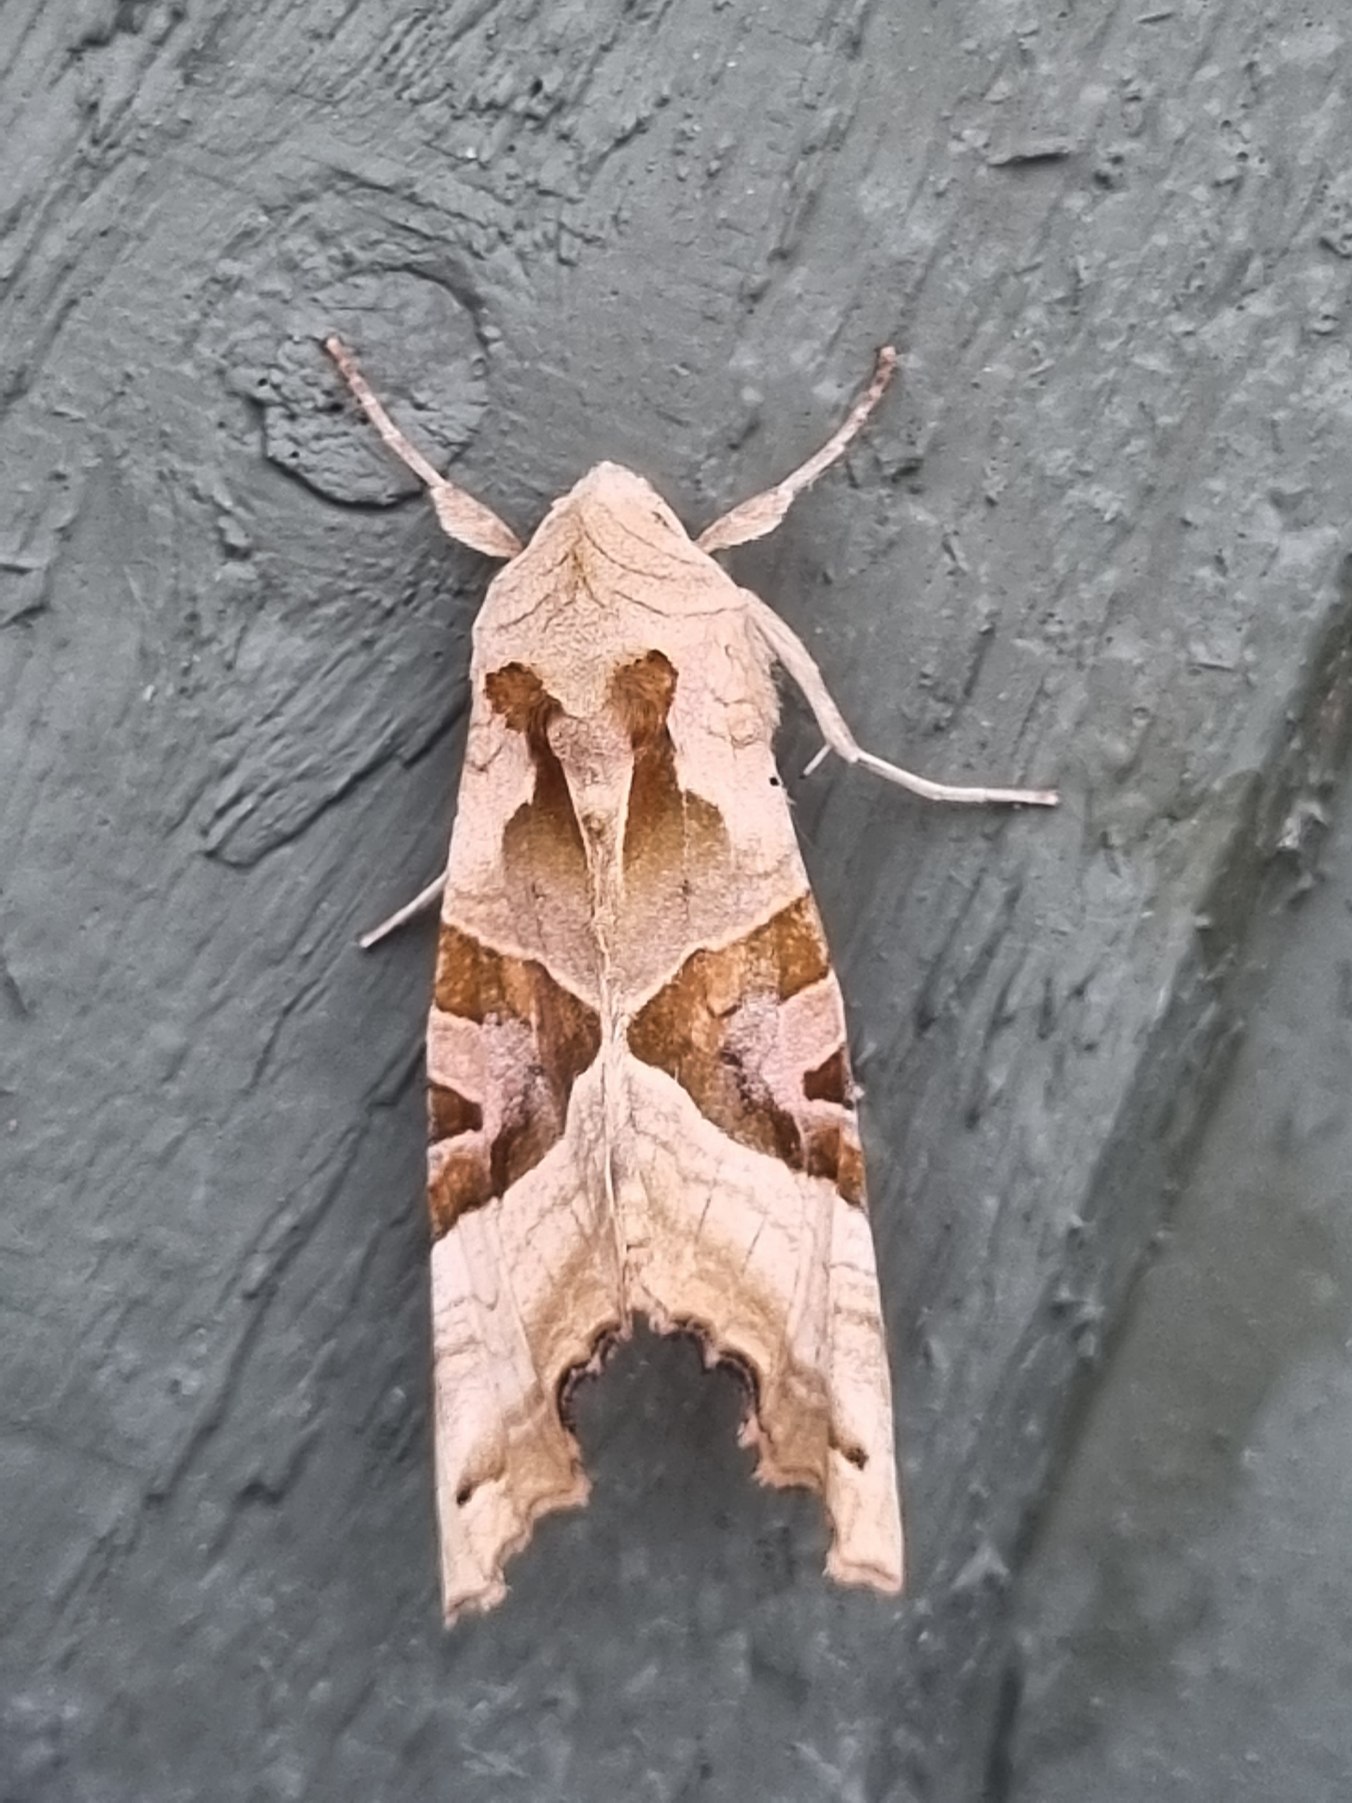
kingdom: Animalia
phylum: Arthropoda
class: Insecta
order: Lepidoptera
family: Noctuidae
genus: Phlogophora
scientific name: Phlogophora meticulosa
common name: Agatugle
